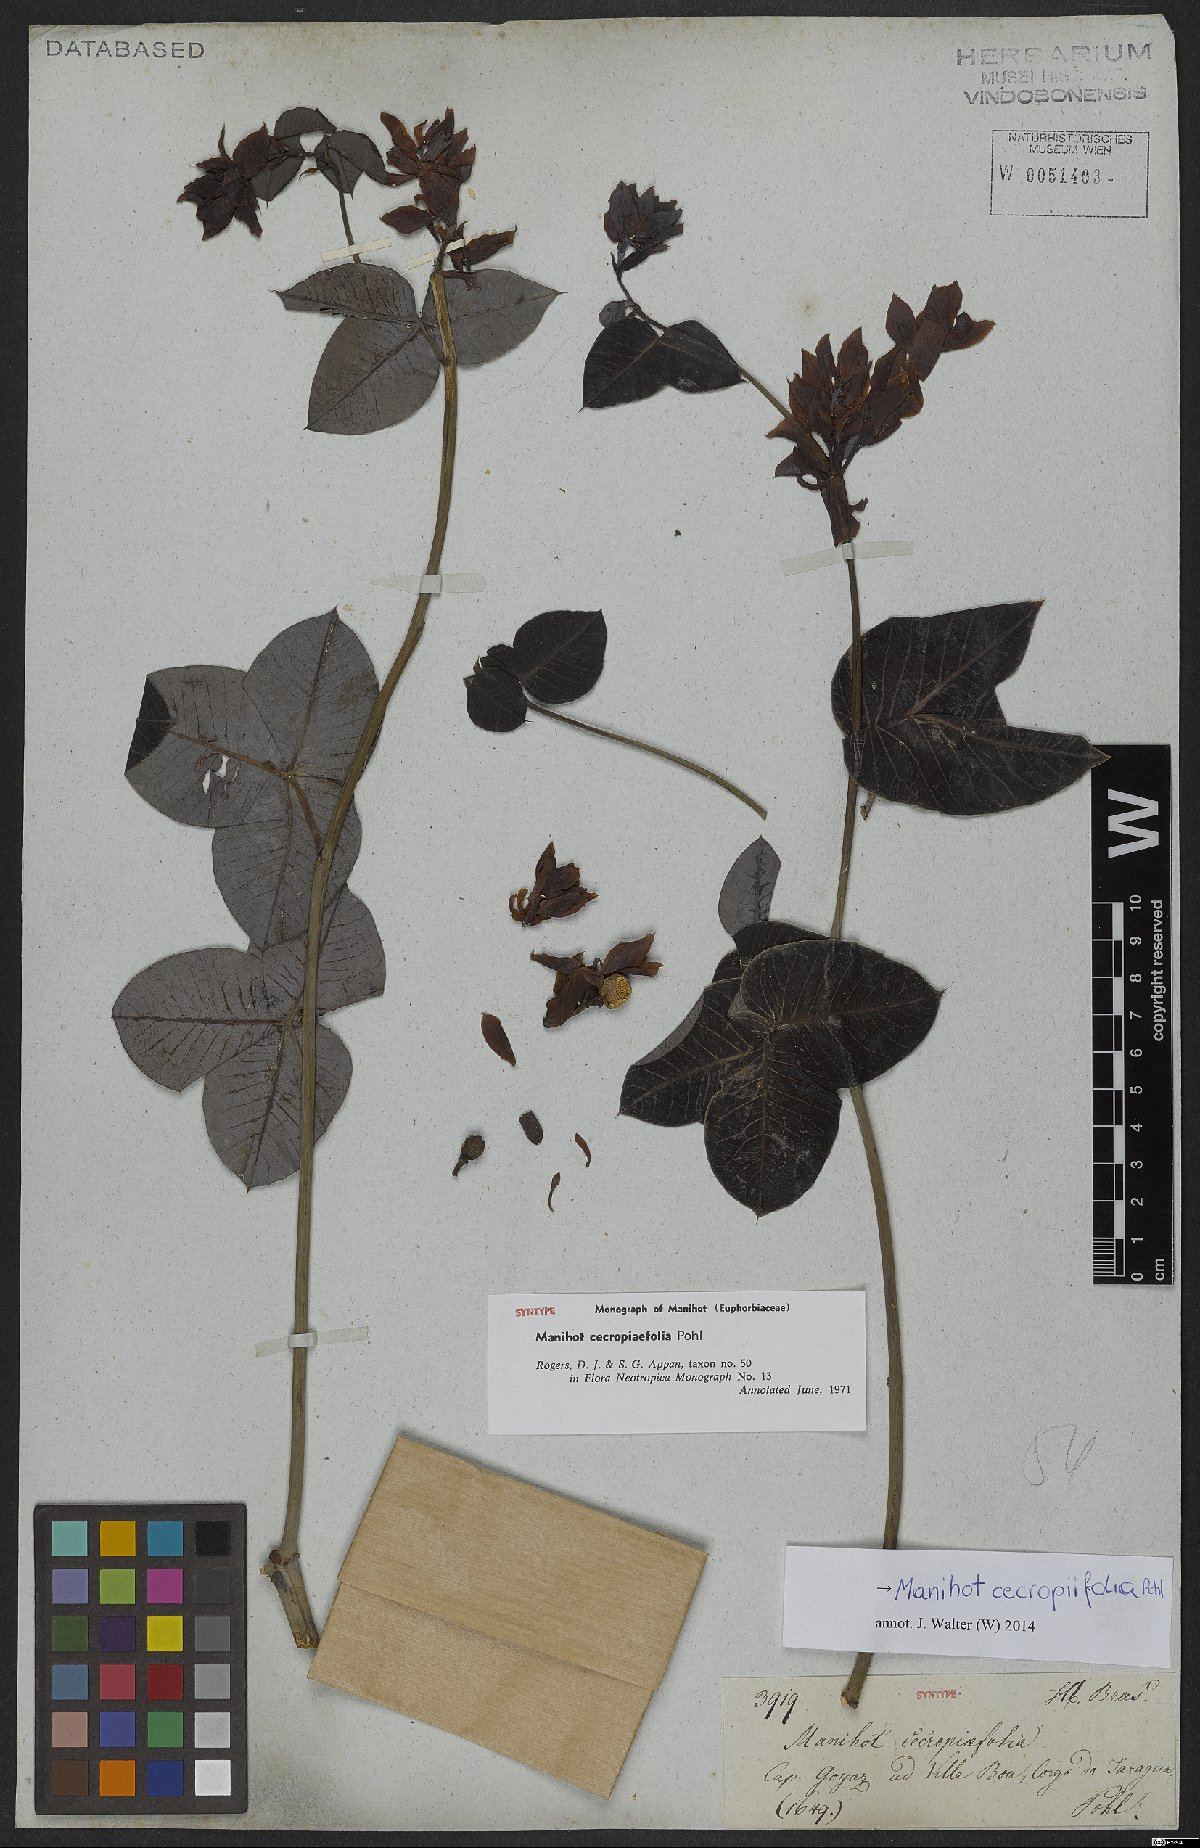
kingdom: Plantae
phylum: Tracheophyta
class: Magnoliopsida
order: Malpighiales
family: Euphorbiaceae
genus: Manihot
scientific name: Manihot cecropiifolia
